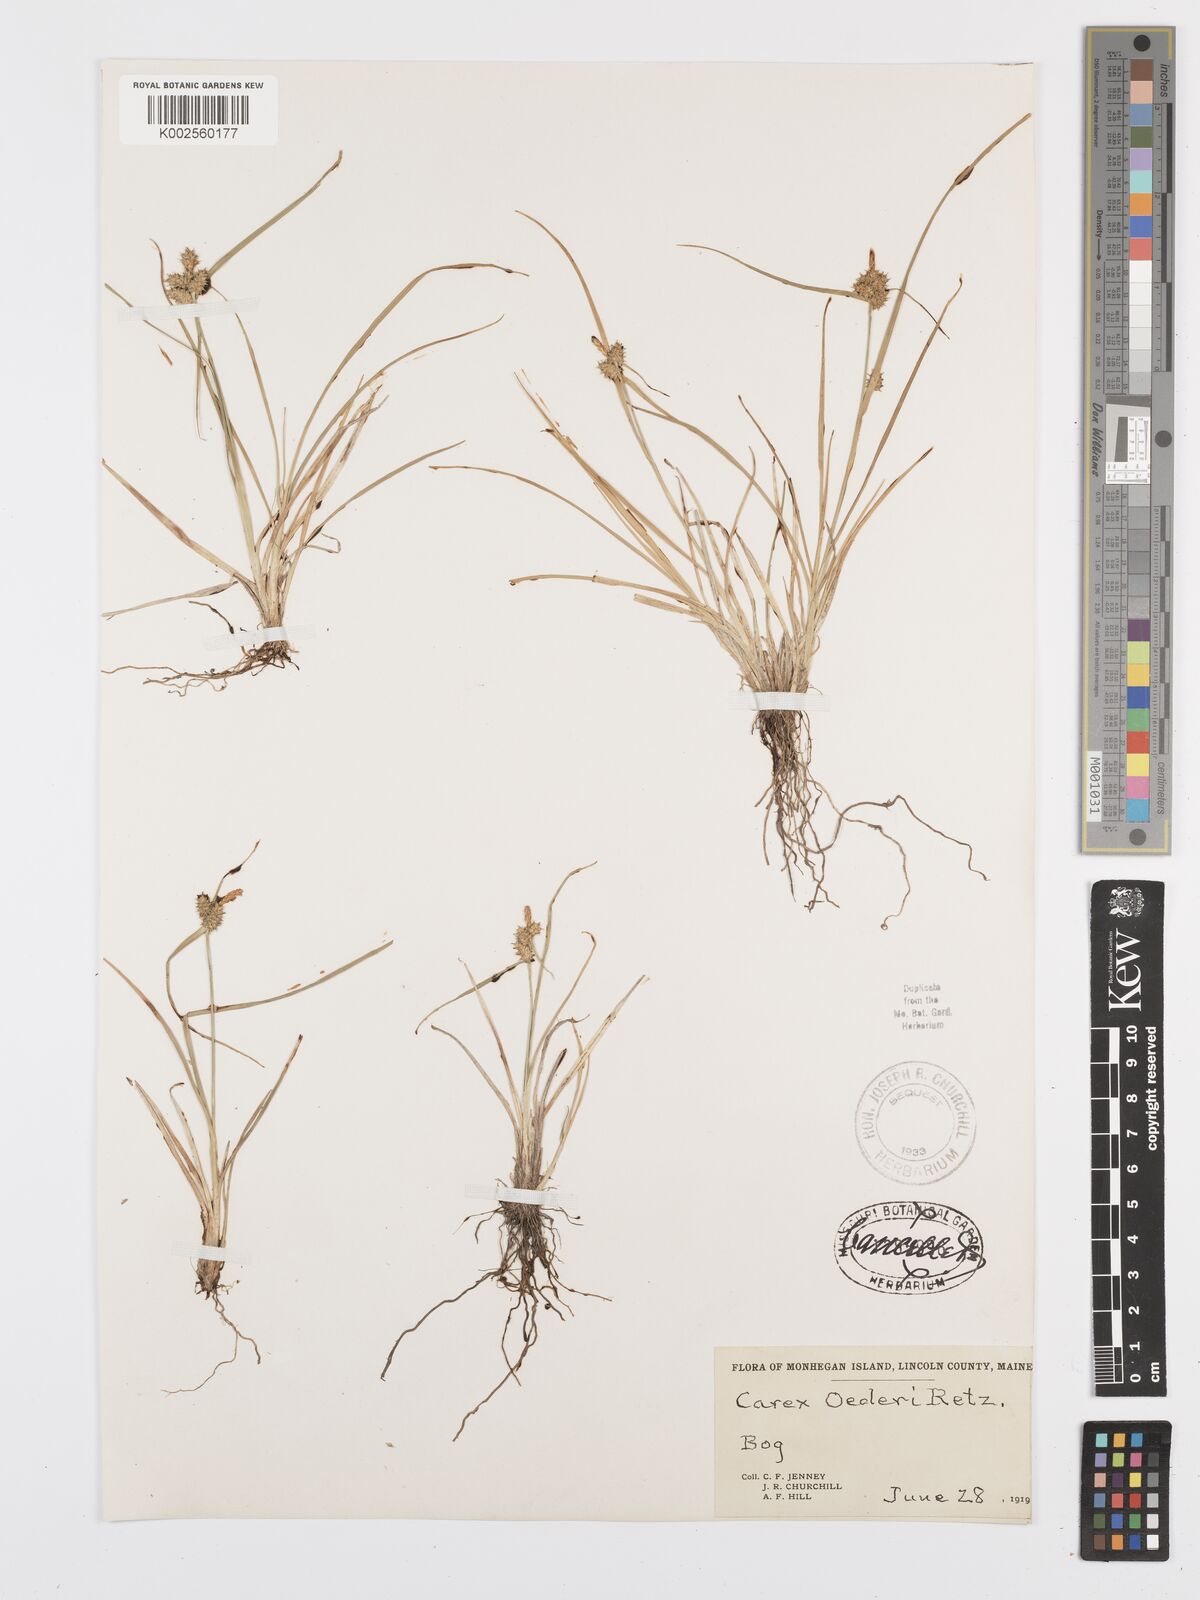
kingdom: Plantae
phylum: Tracheophyta
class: Liliopsida
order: Poales
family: Cyperaceae
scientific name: Cyperaceae
